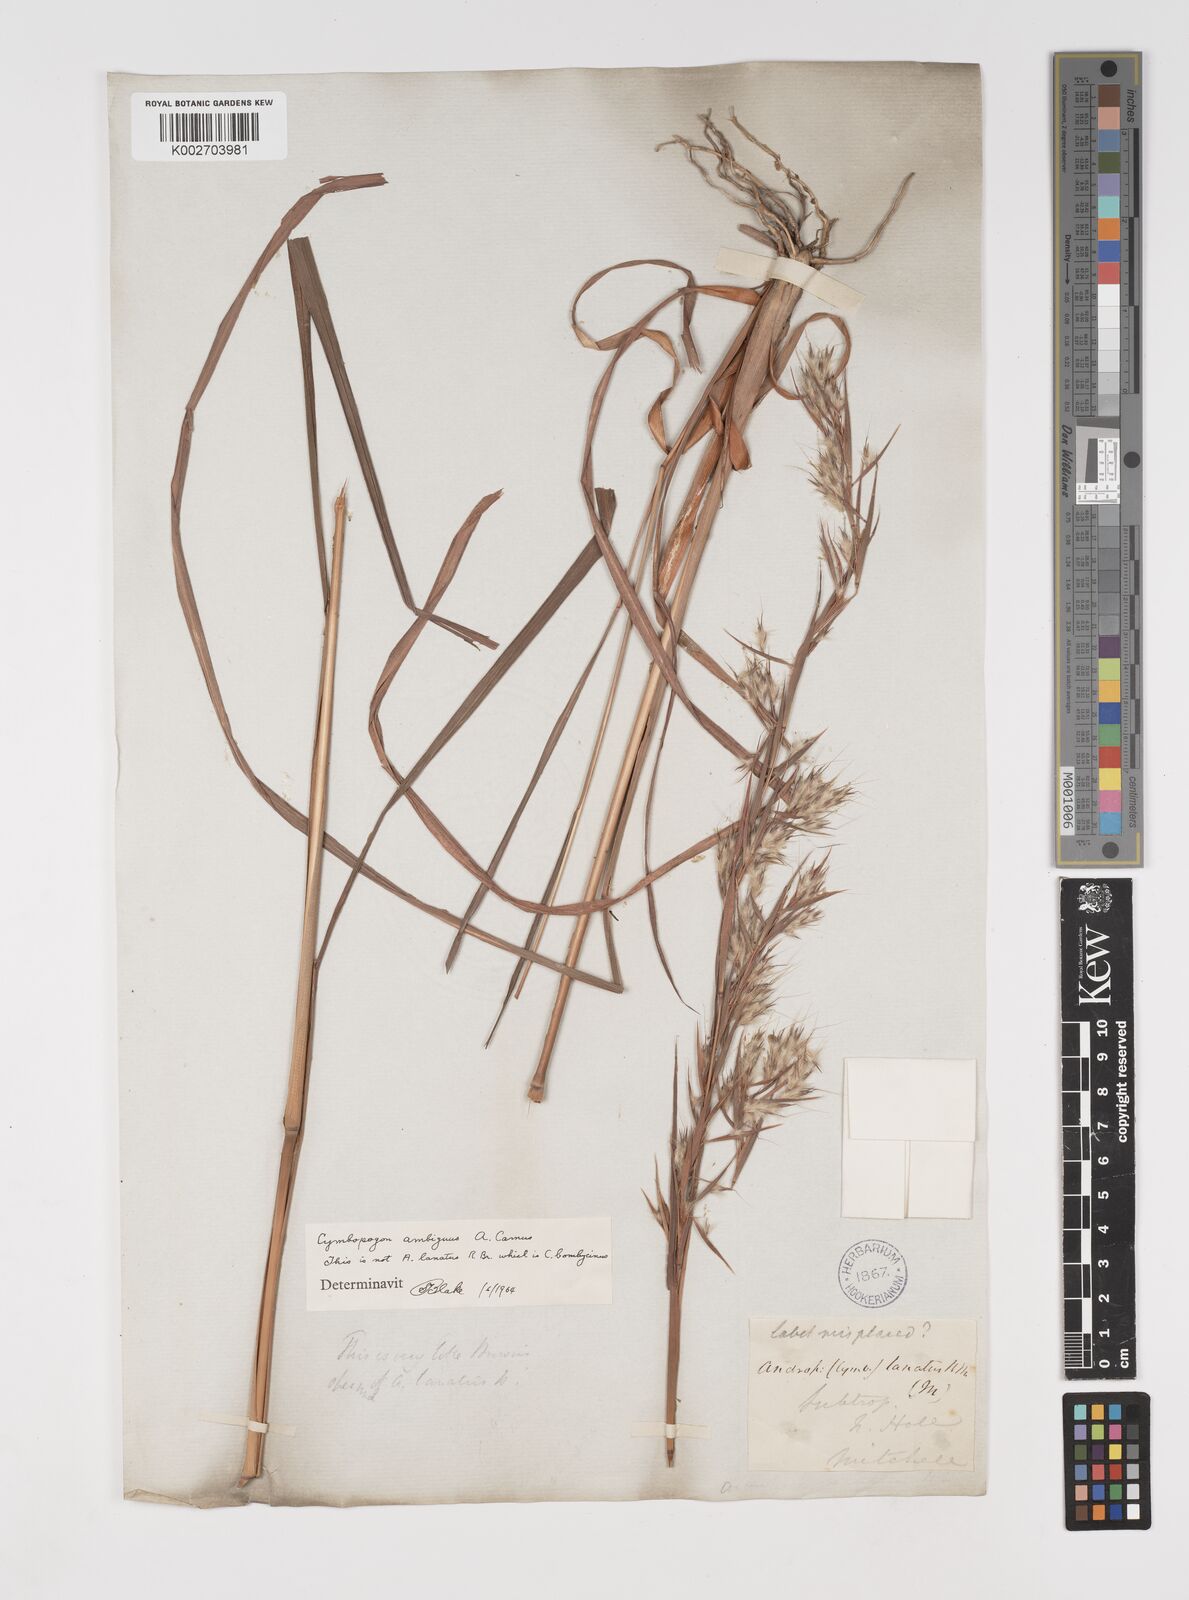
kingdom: Plantae
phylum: Tracheophyta
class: Liliopsida
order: Poales
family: Poaceae
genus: Cymbopogon
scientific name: Cymbopogon ambiguus
